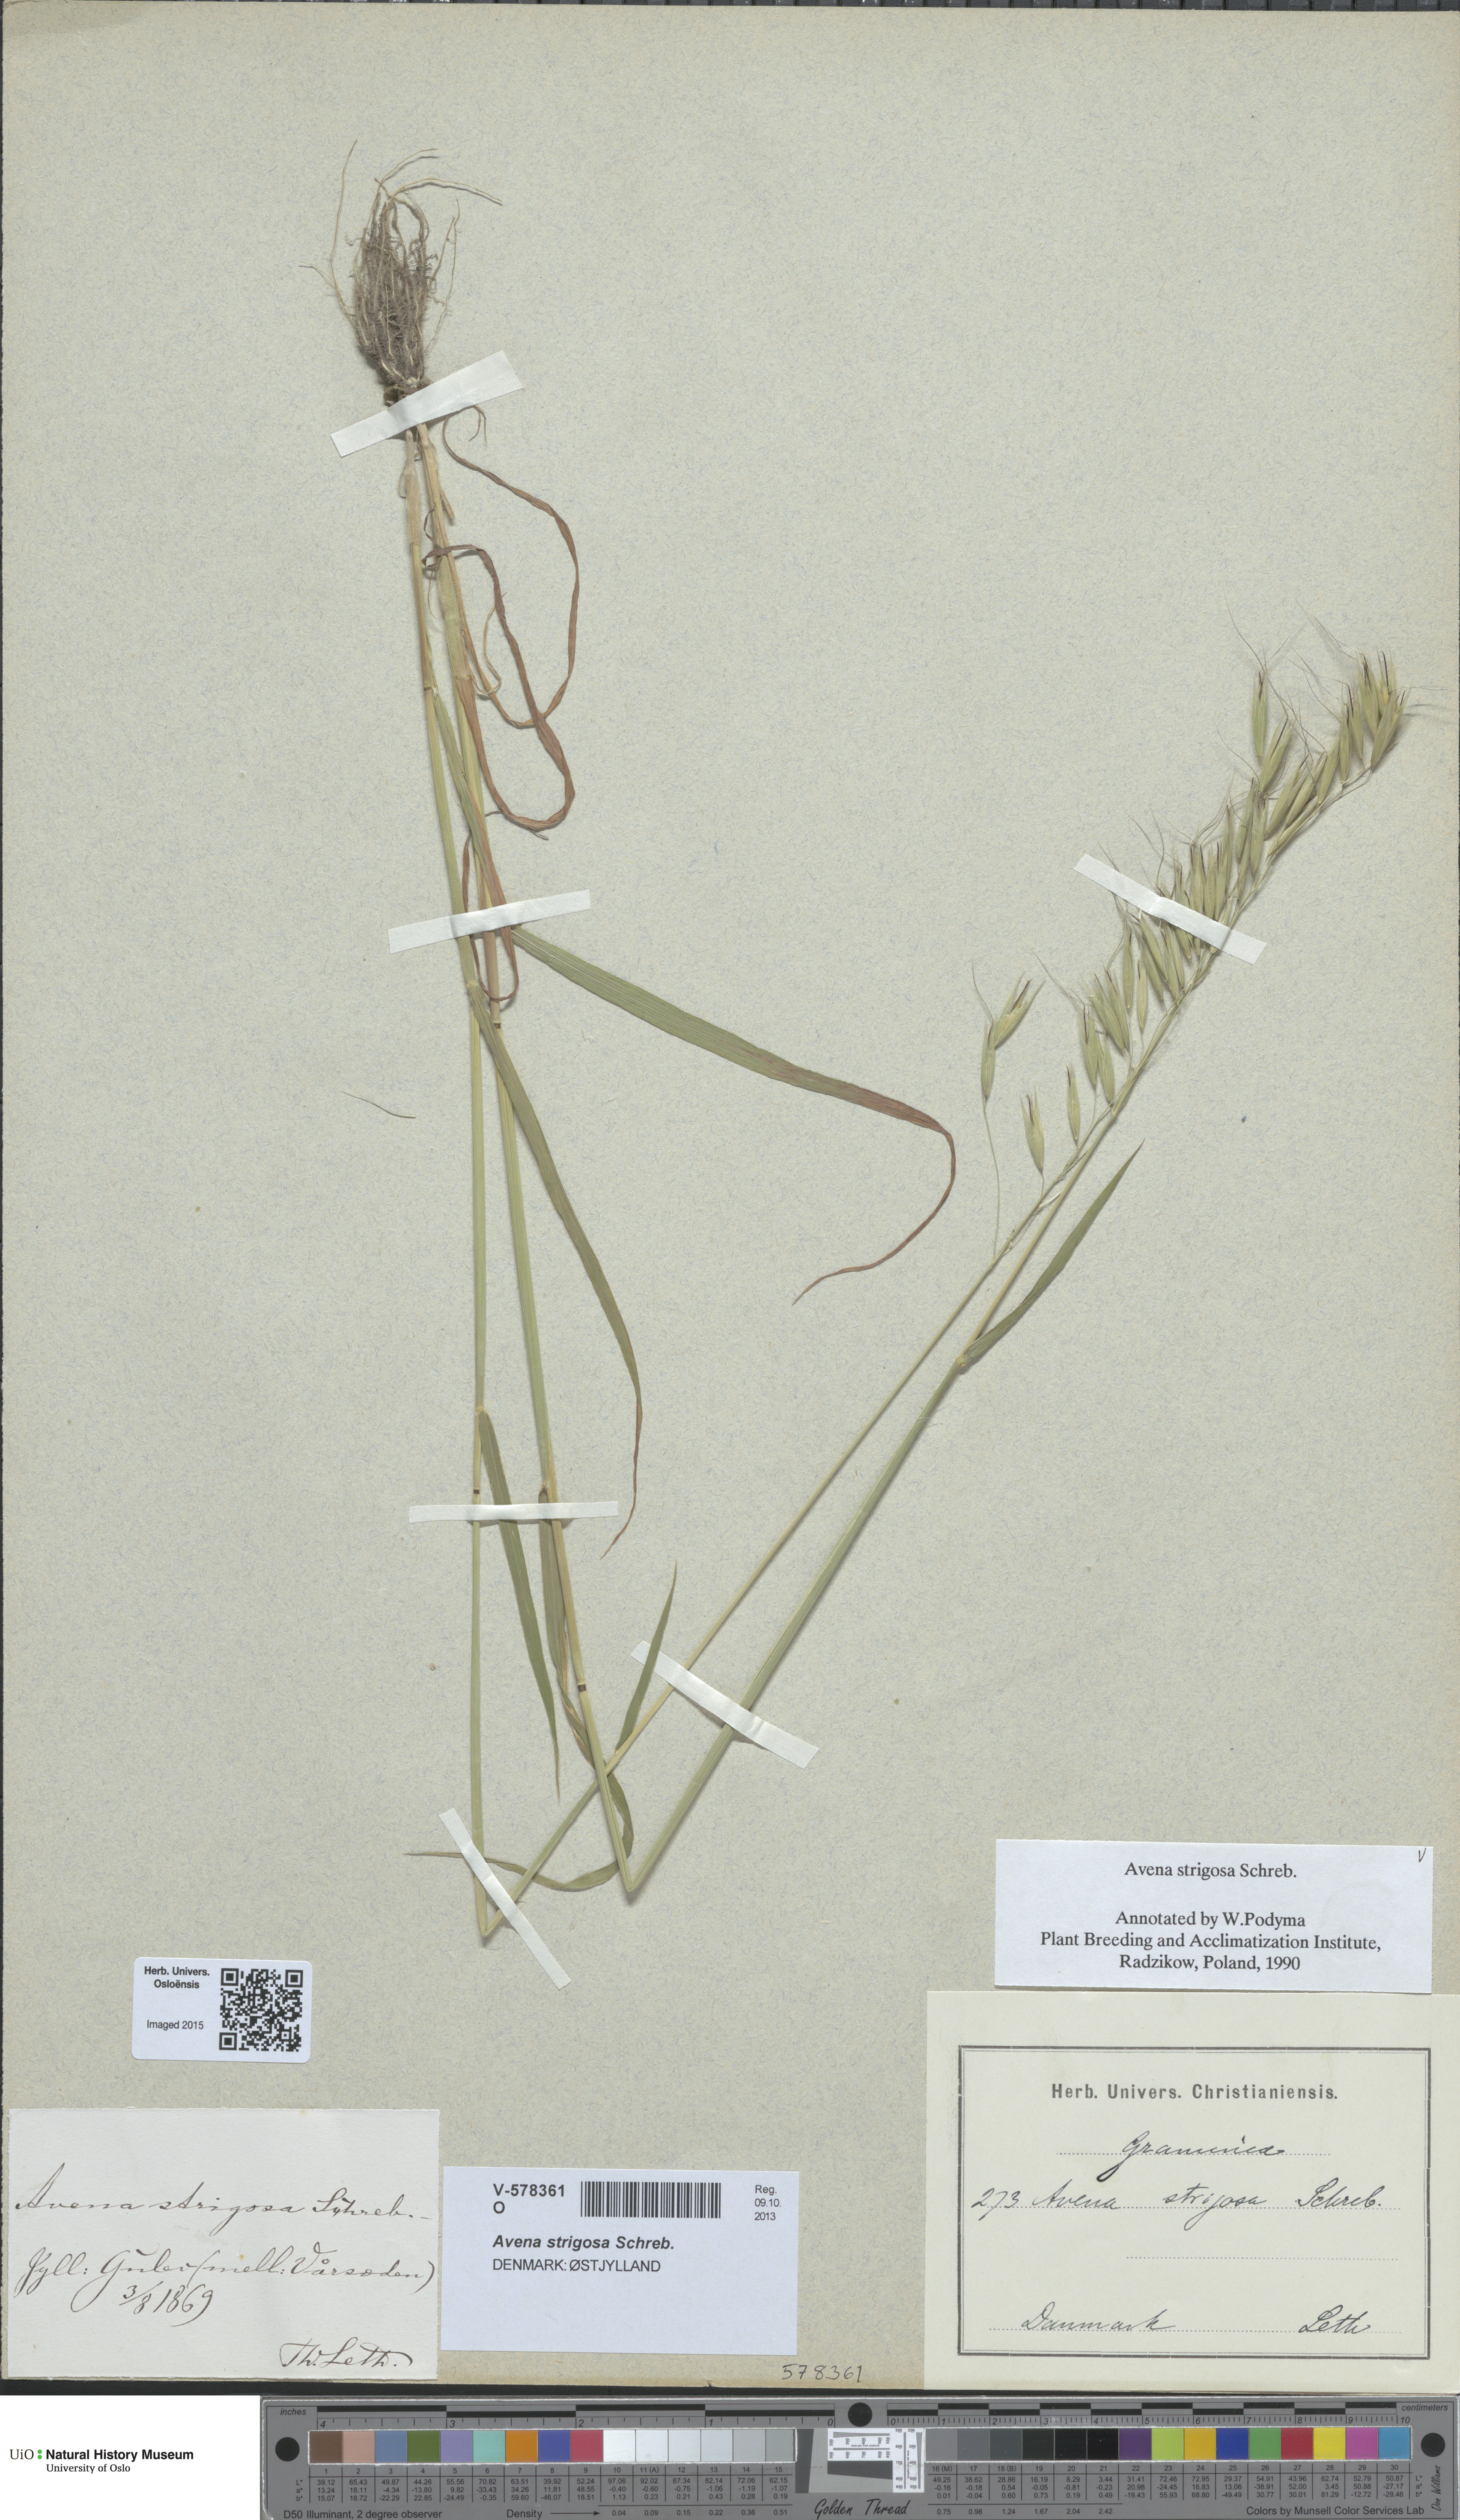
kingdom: Plantae
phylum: Tracheophyta
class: Liliopsida
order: Poales
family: Poaceae
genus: Avena
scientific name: Avena strigosa
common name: Bristle oat
